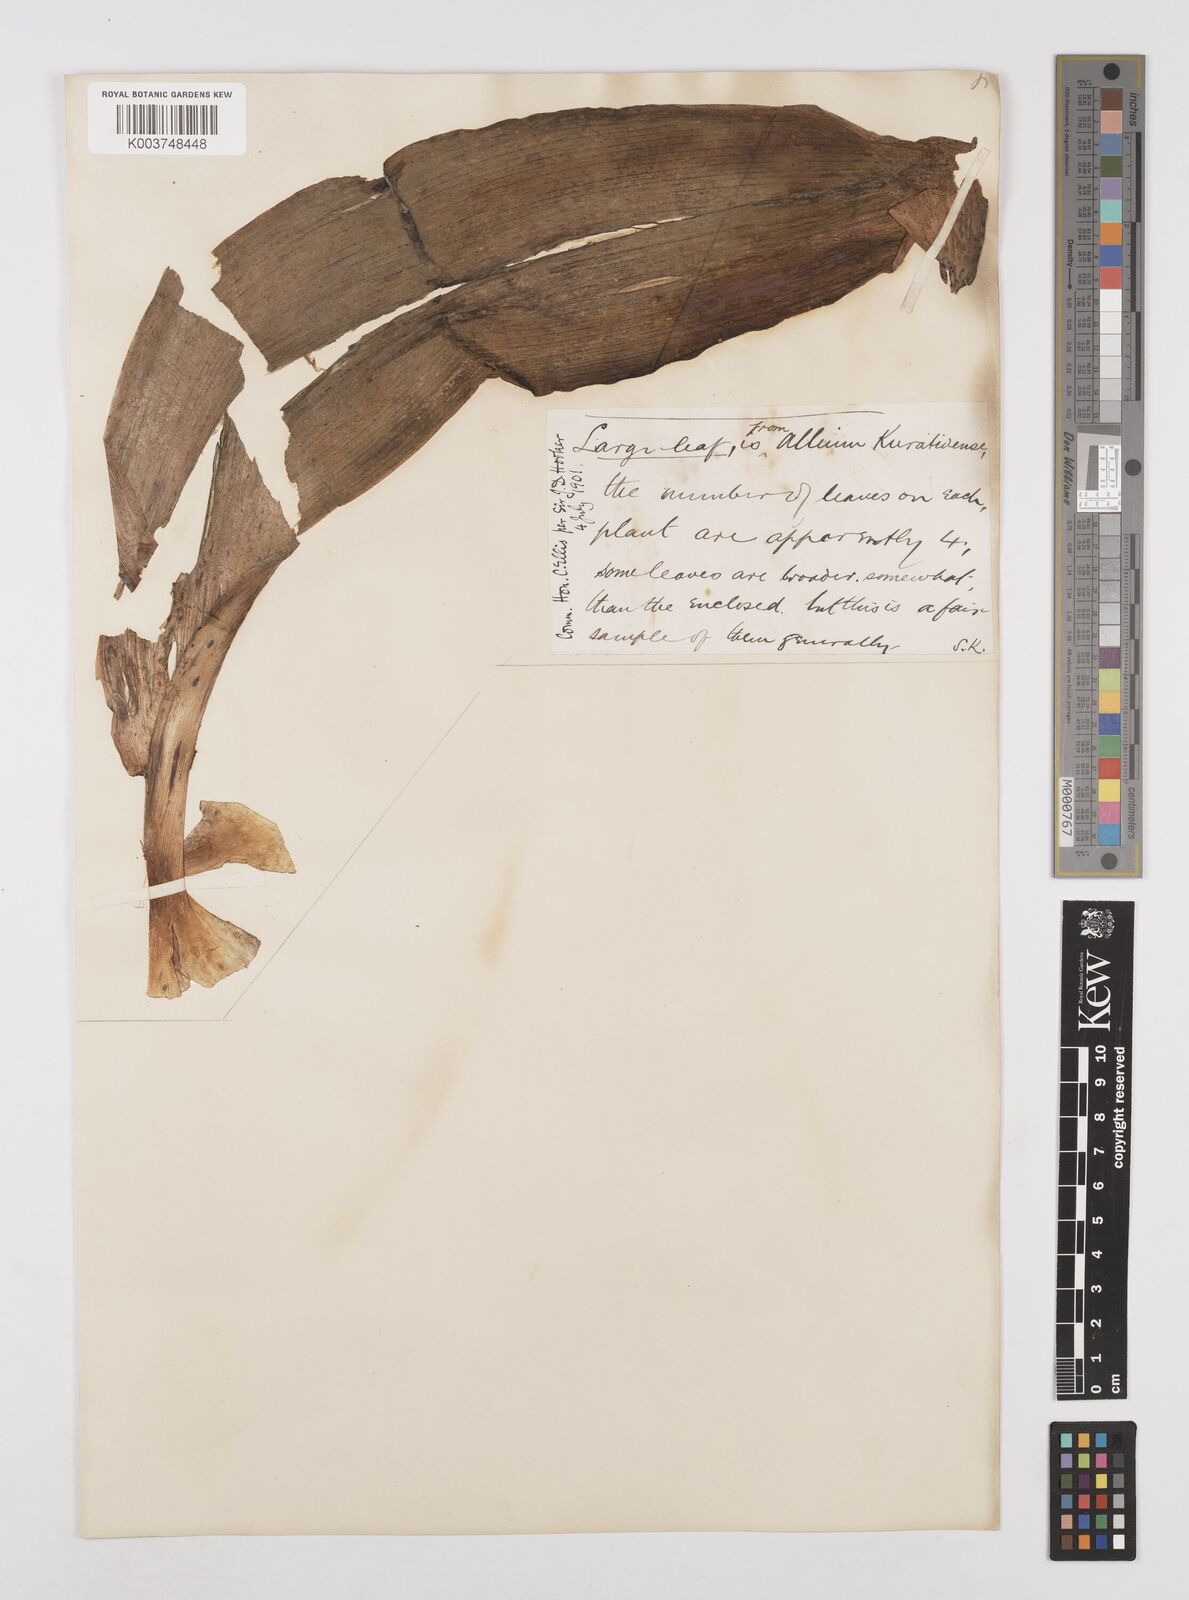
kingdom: Plantae
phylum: Tracheophyta
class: Liliopsida
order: Asparagales
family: Amaryllidaceae
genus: Allium
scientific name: Allium karataviense
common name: Turkestan onion
